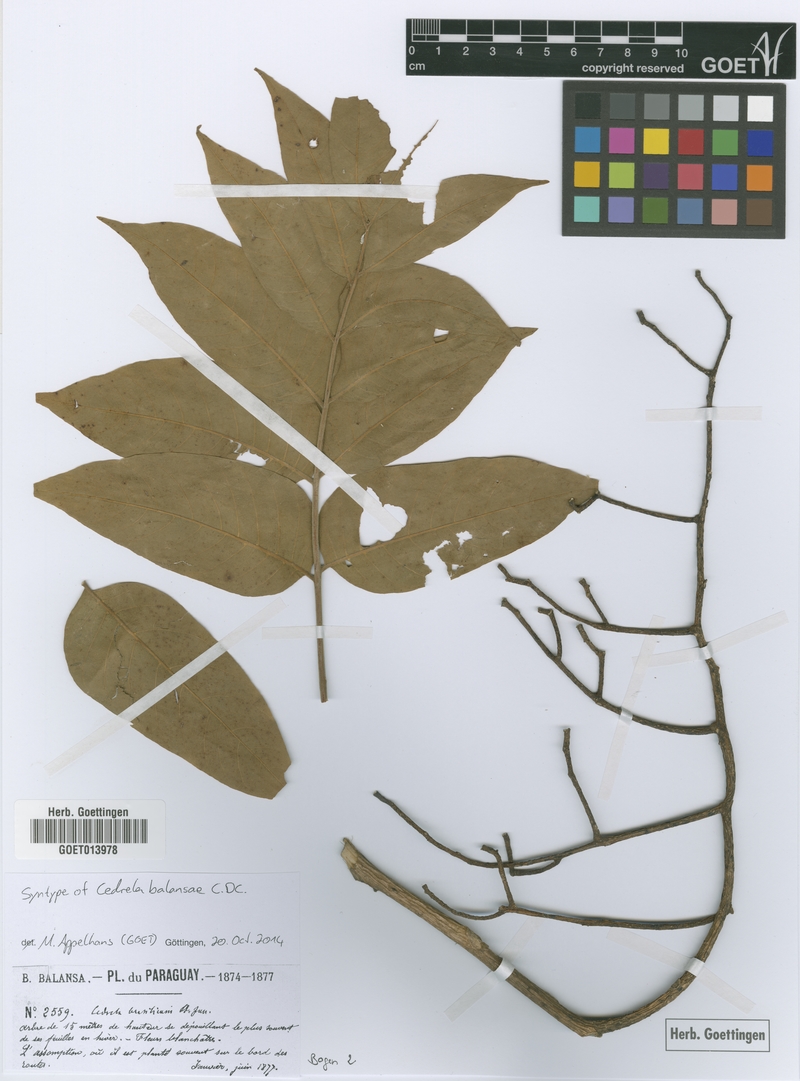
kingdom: Plantae
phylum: Tracheophyta
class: Magnoliopsida
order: Sapindales
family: Meliaceae
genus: Cedrela
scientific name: Cedrela balansae
